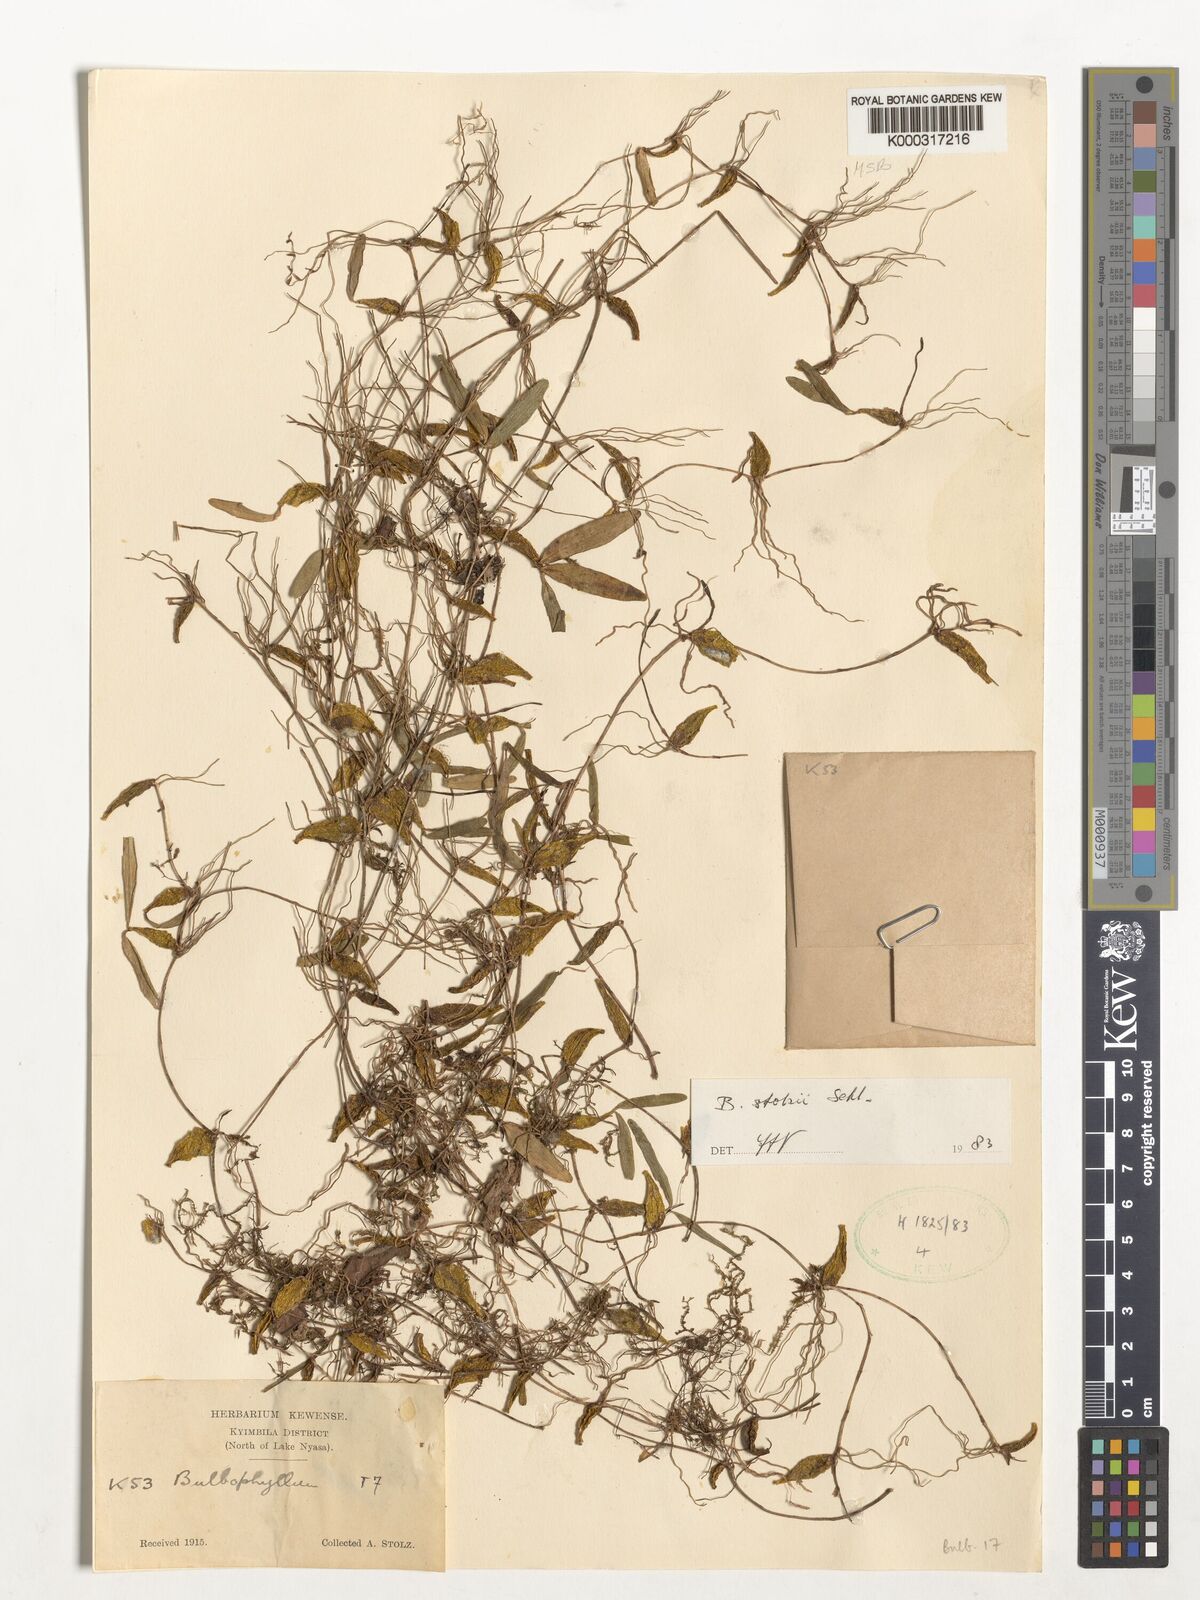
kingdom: Plantae
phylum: Tracheophyta
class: Liliopsida
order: Asparagales
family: Orchidaceae
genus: Bulbophyllum
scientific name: Bulbophyllum stolzii
